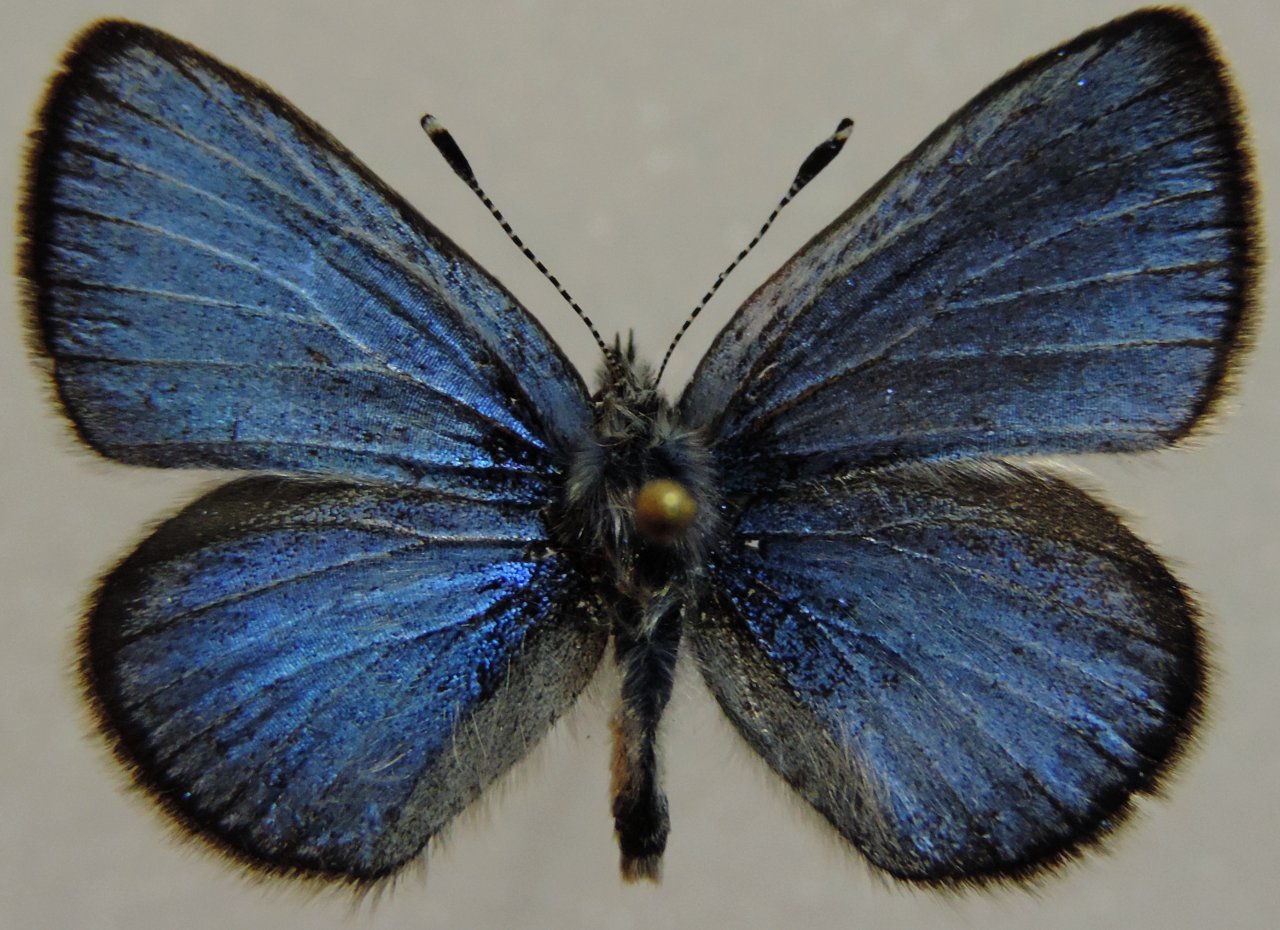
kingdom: Animalia
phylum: Arthropoda
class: Insecta
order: Lepidoptera
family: Lycaenidae
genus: Glaucopsyche
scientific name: Glaucopsyche lygdamus
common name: Silvery Blue
